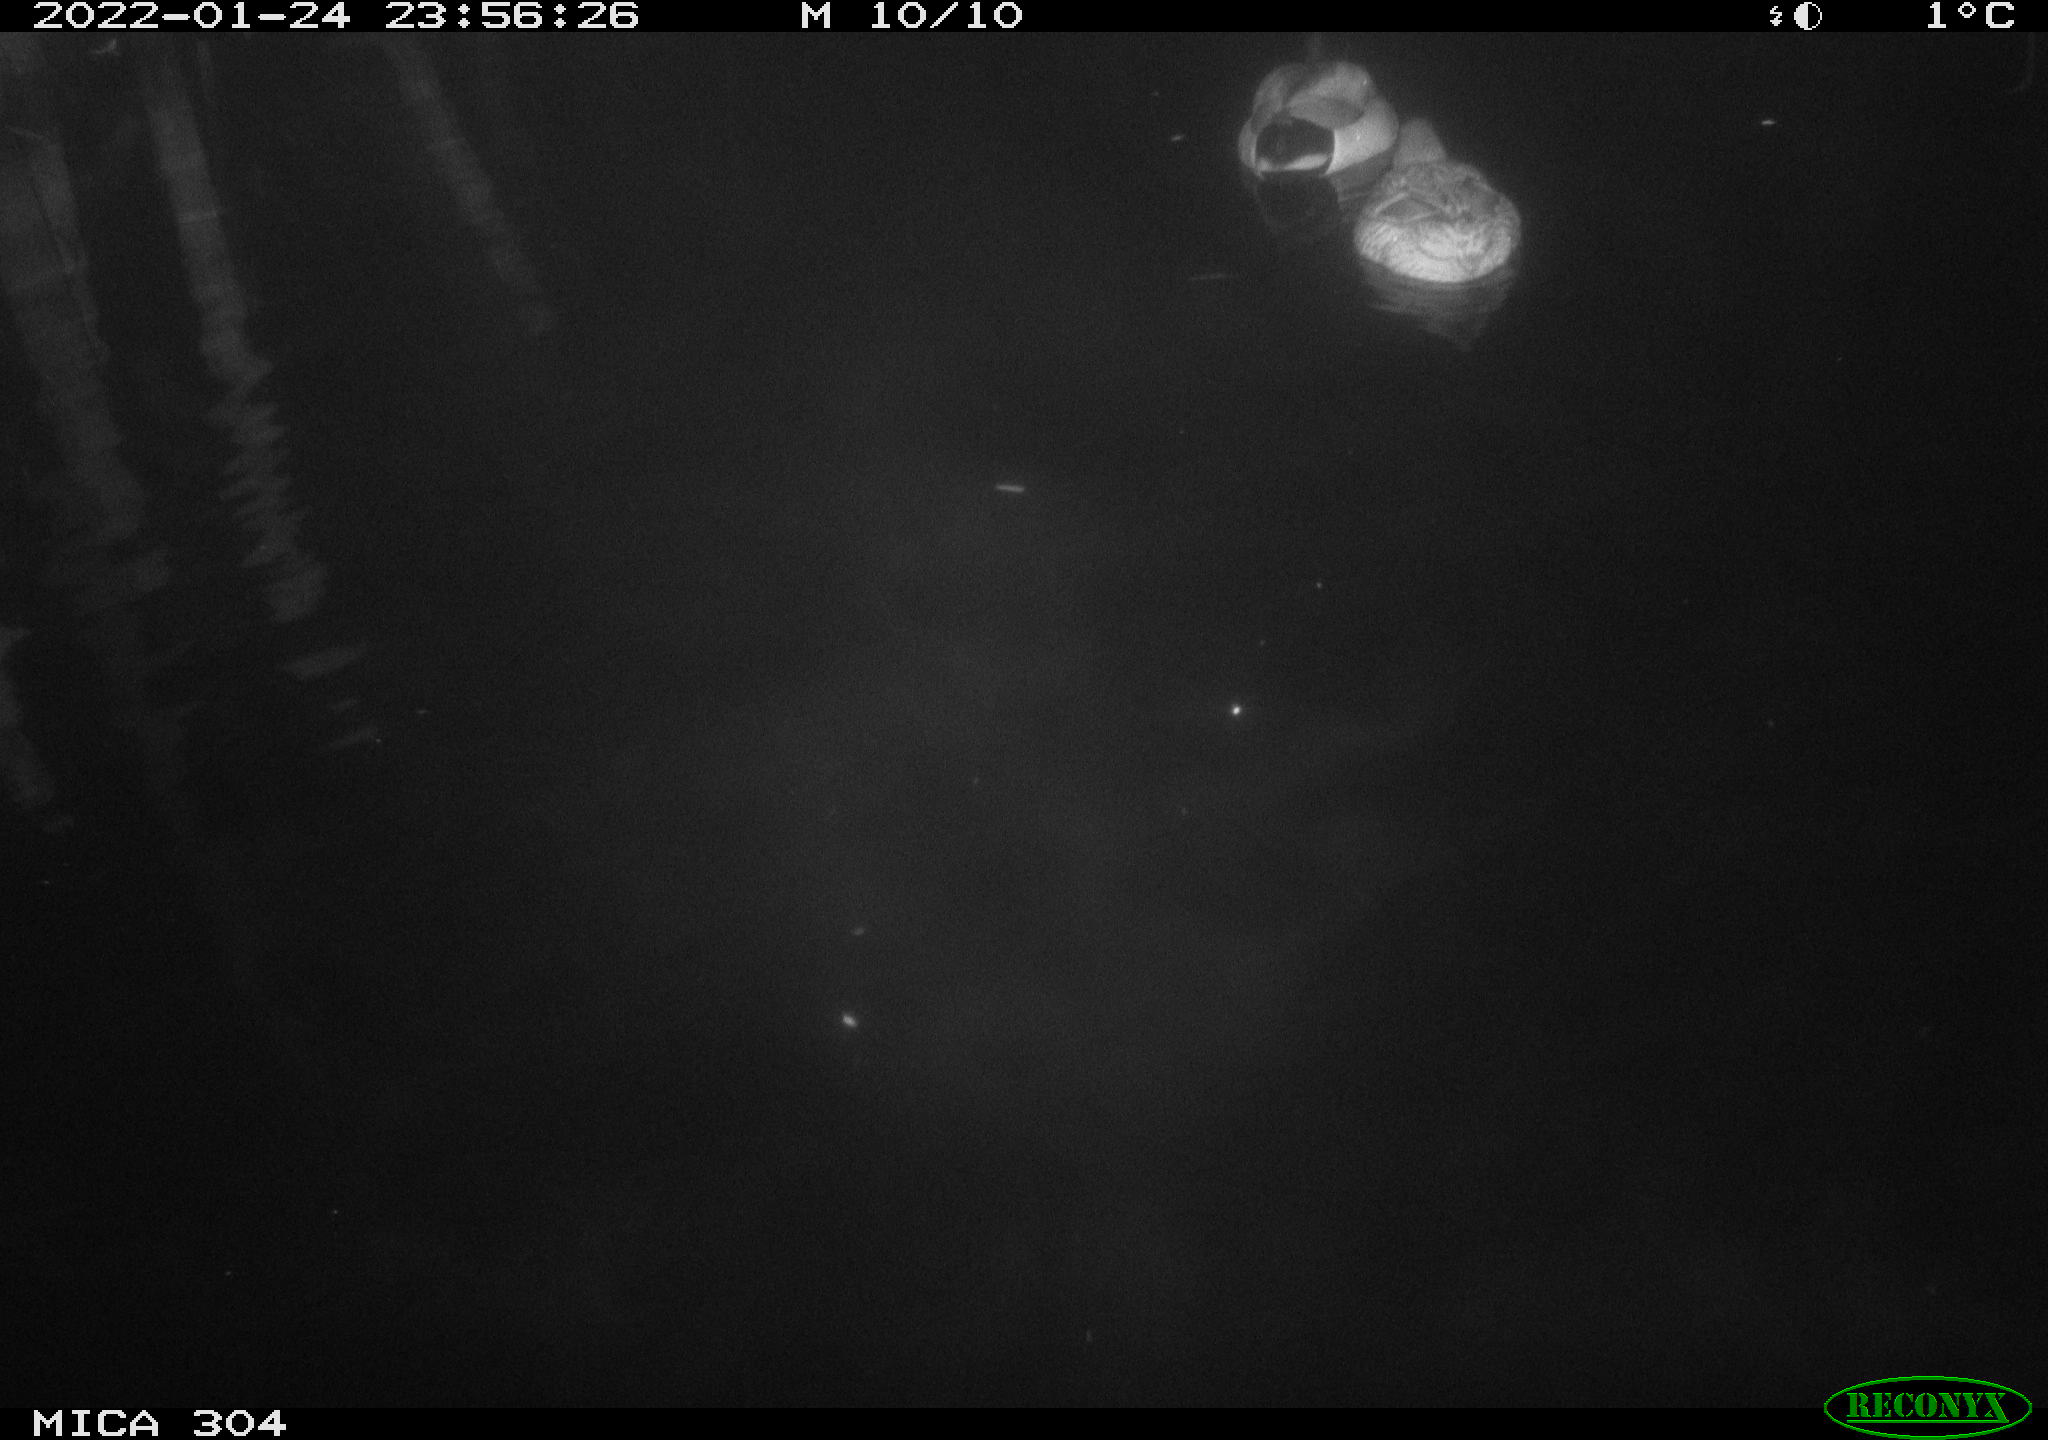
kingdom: Animalia
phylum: Chordata
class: Aves
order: Anseriformes
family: Anatidae
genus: Anas
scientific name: Anas
